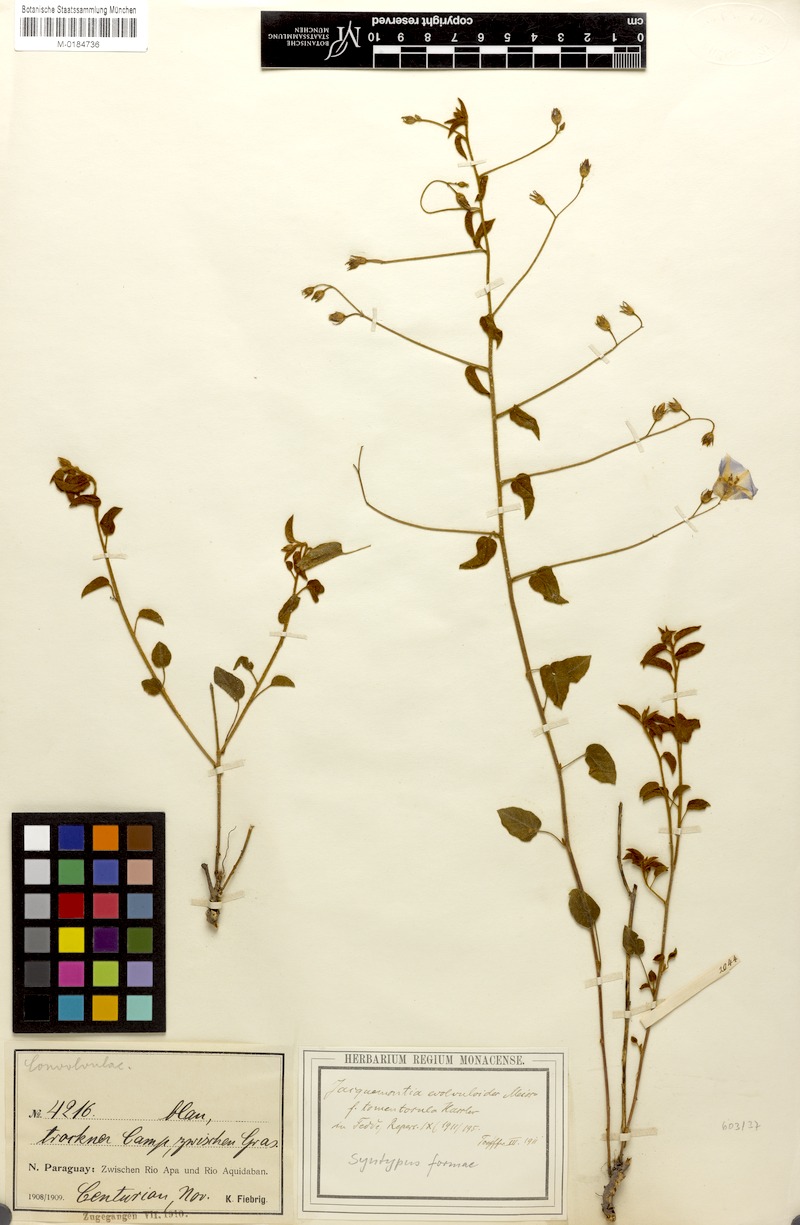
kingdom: Plantae
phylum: Tracheophyta
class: Magnoliopsida
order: Solanales
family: Convolvulaceae
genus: Jacquemontia
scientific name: Jacquemontia evolvuloides
